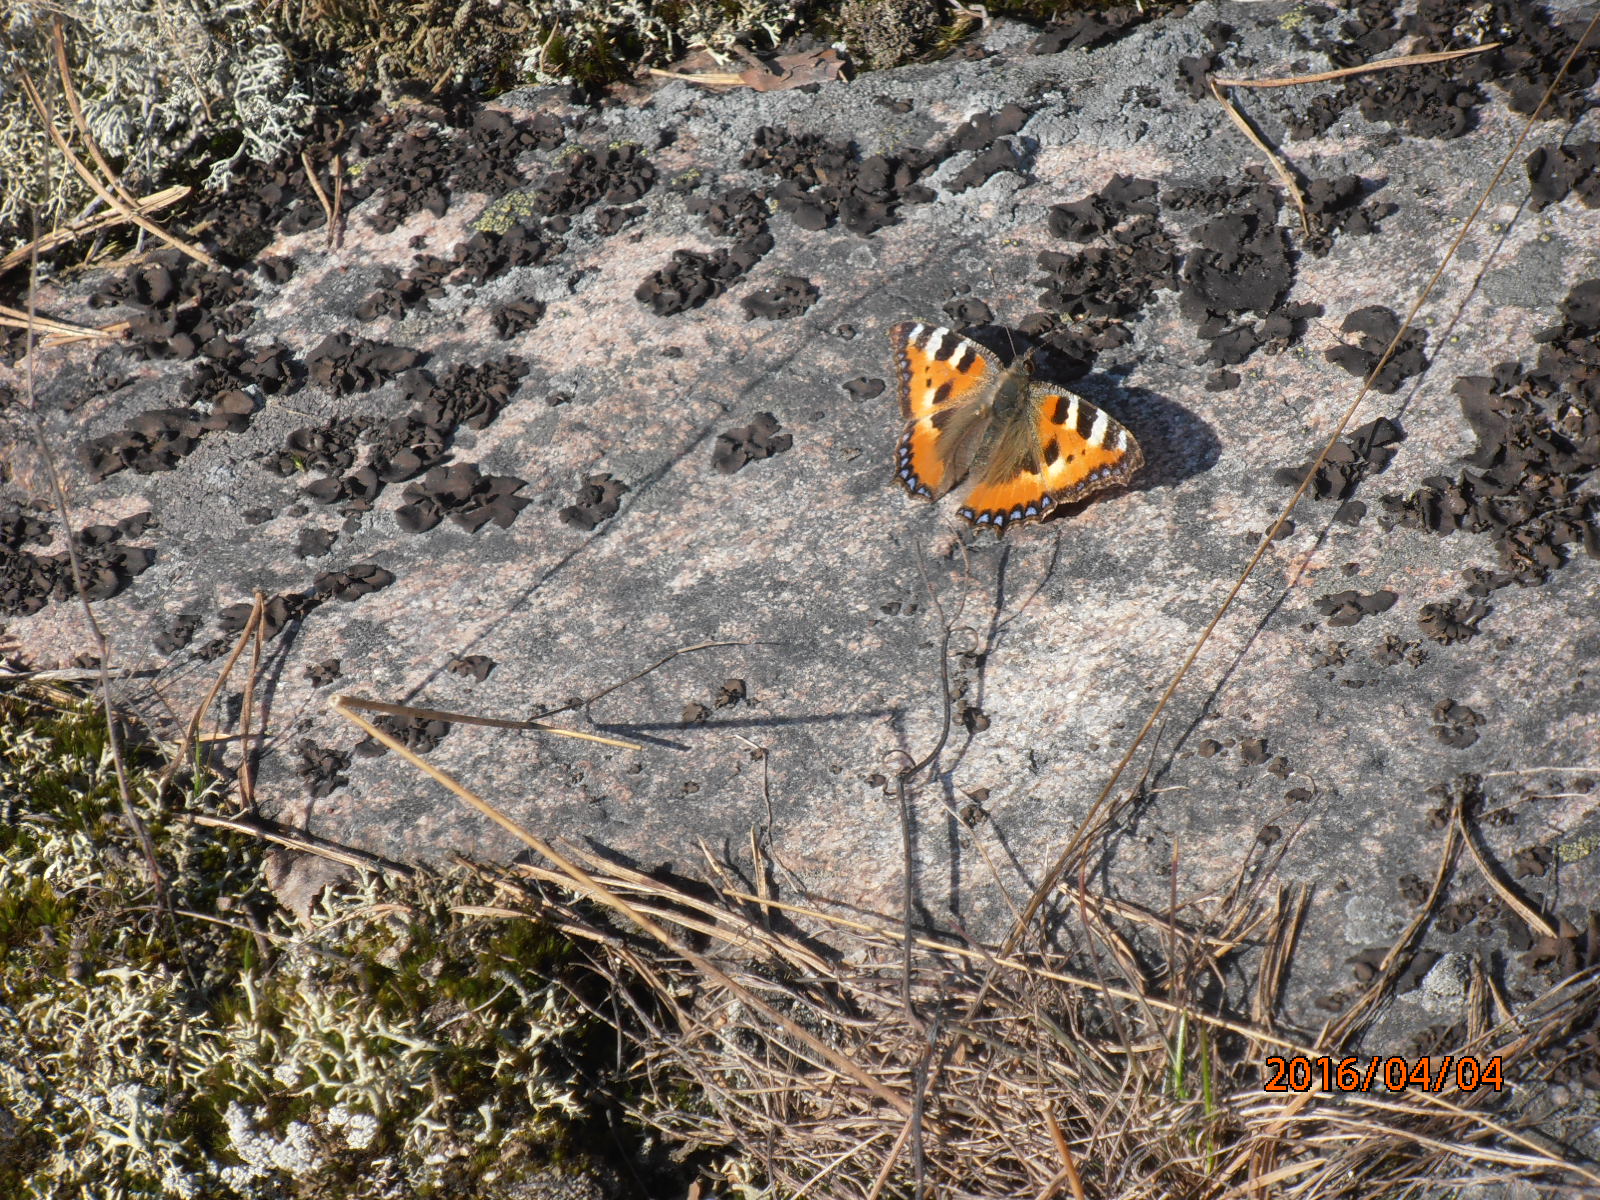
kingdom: Animalia
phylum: Arthropoda
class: Insecta
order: Lepidoptera
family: Nymphalidae
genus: Aglais
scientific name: Aglais urticae
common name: Small tortoiseshell
